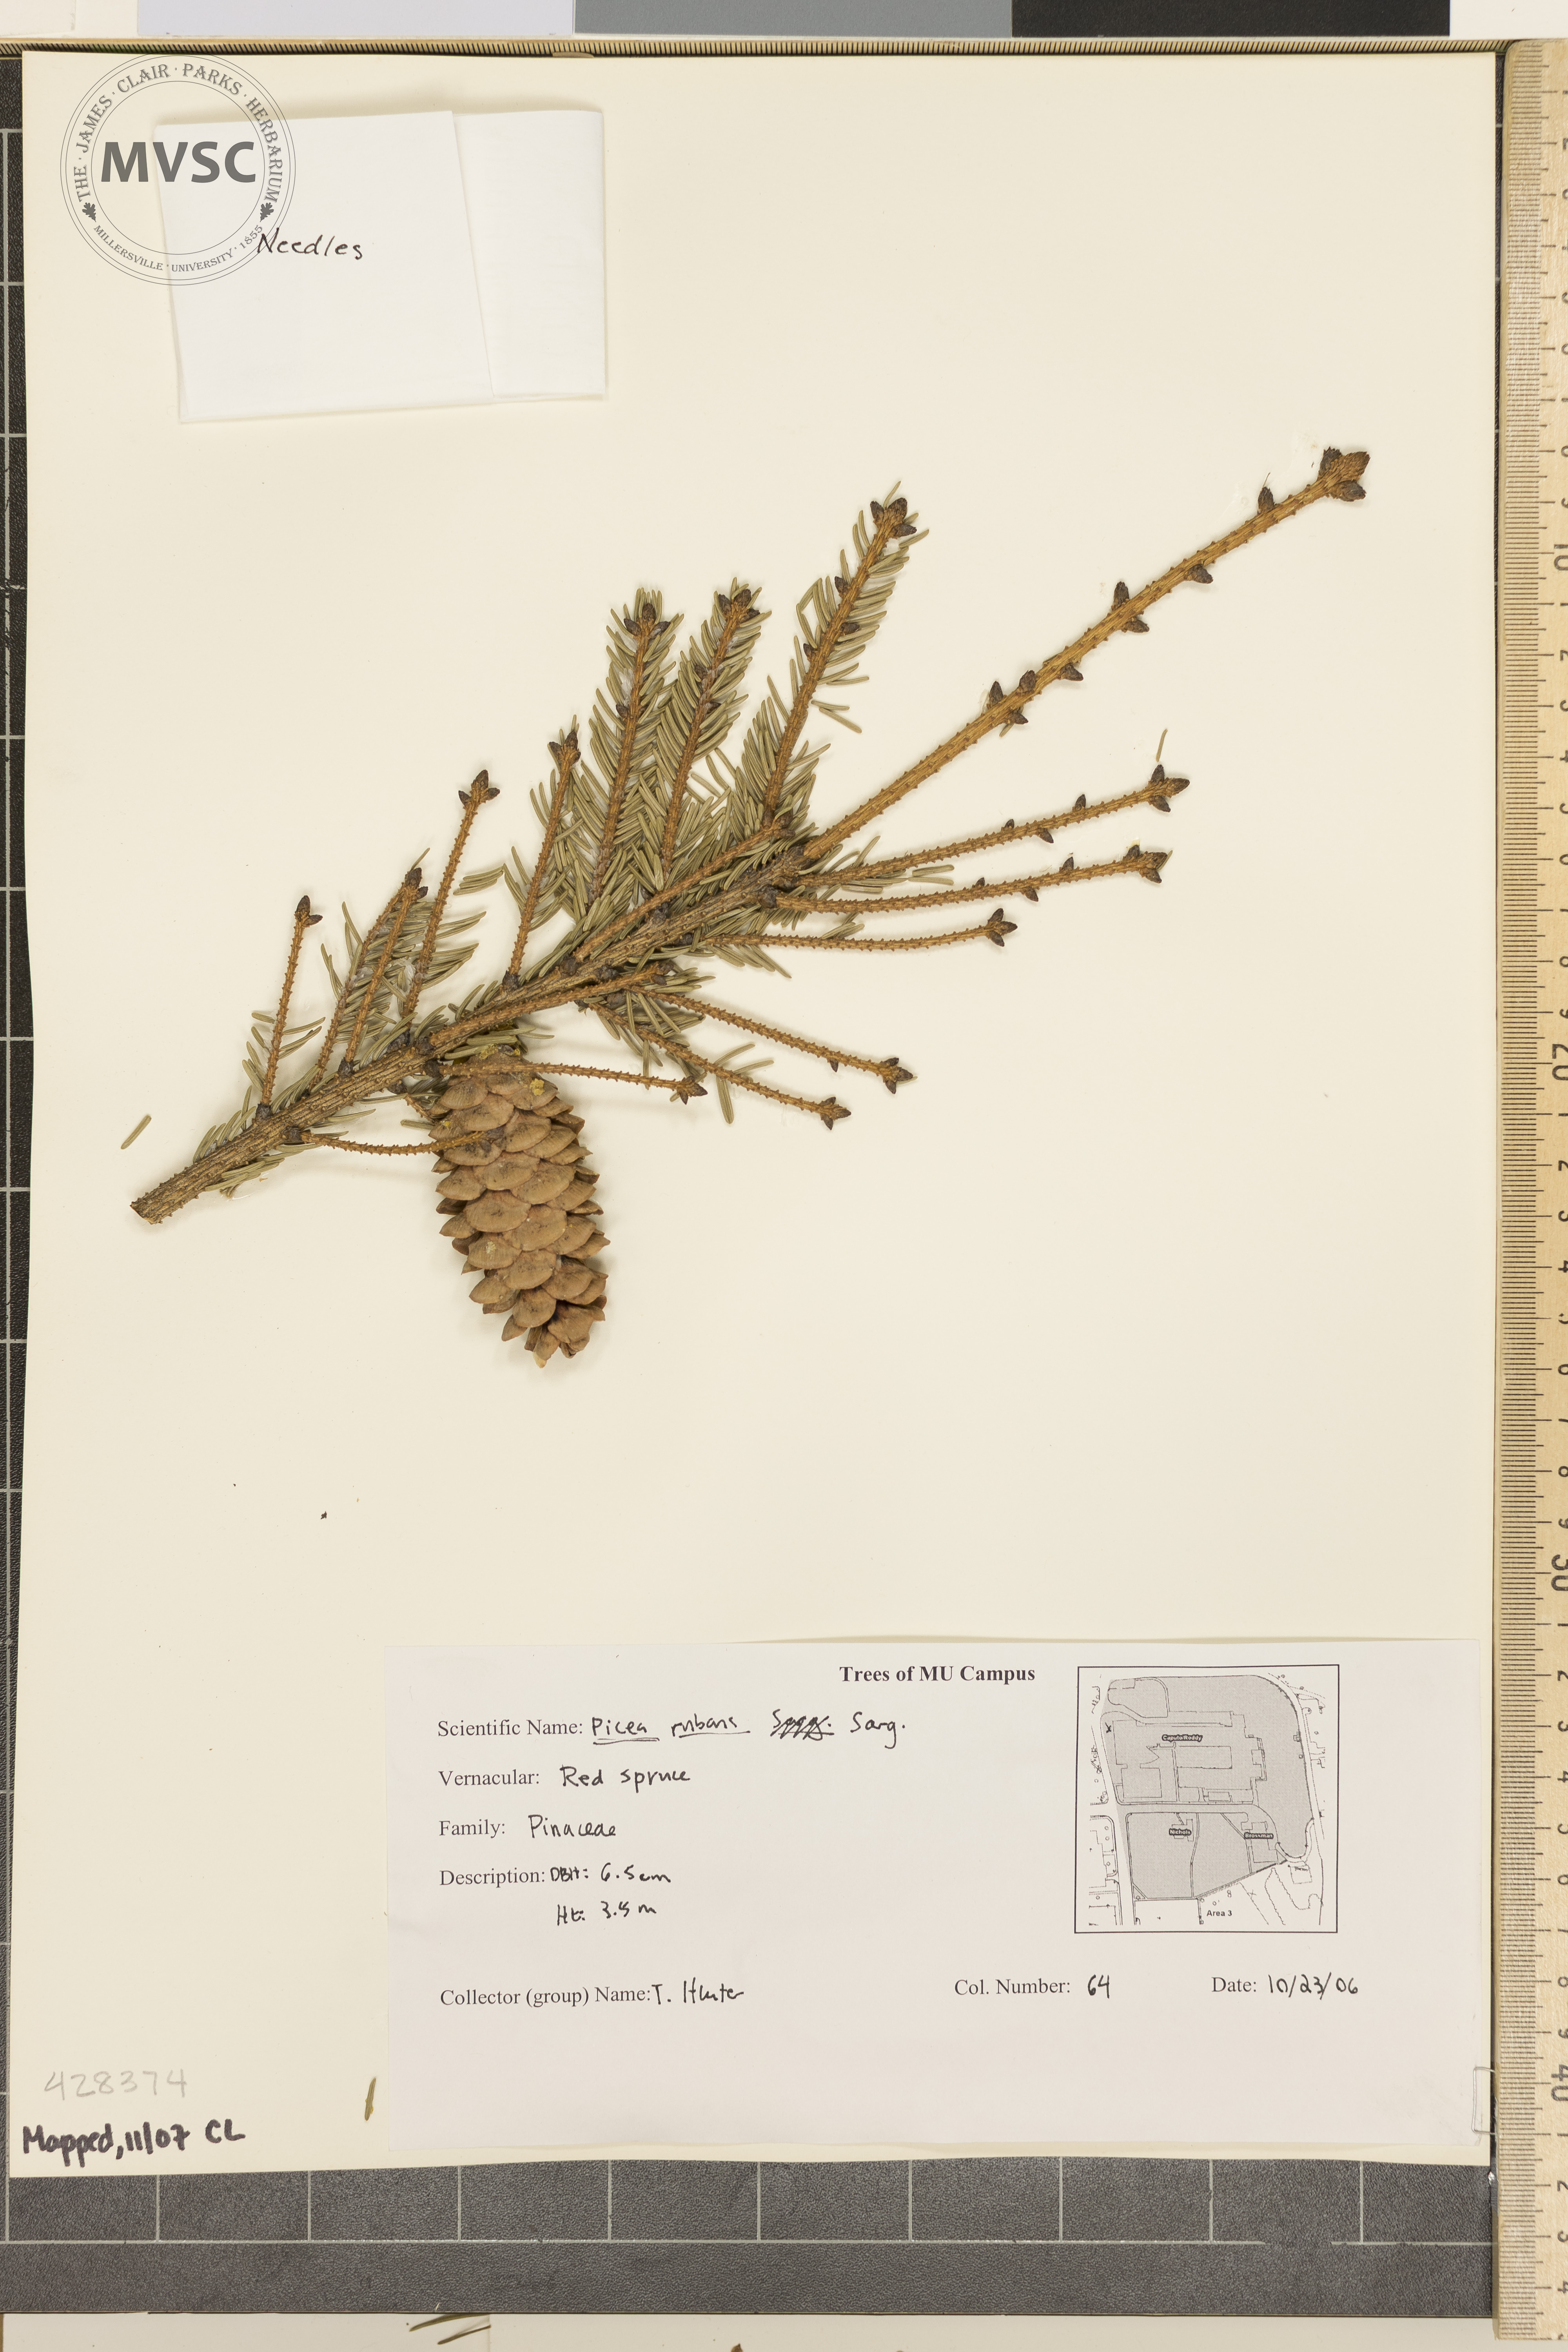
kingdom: Plantae
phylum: Tracheophyta
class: Pinopsida
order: Pinales
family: Pinaceae
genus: Picea
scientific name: Picea rubens
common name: Red Spruce
